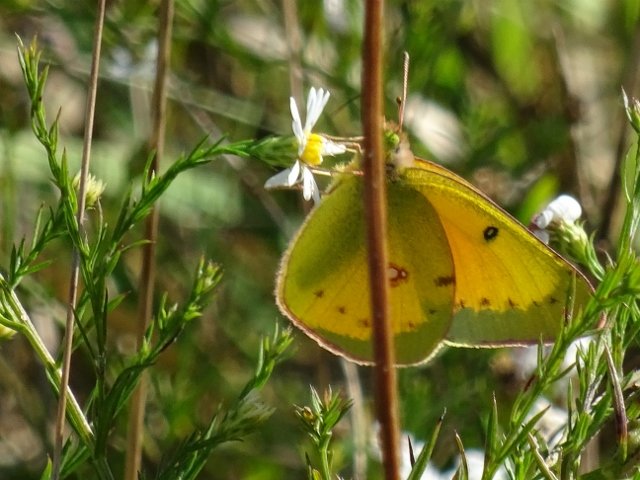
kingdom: Animalia
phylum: Arthropoda
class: Insecta
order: Lepidoptera
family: Pieridae
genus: Colias
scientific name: Colias eurytheme
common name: Orange Sulphur
